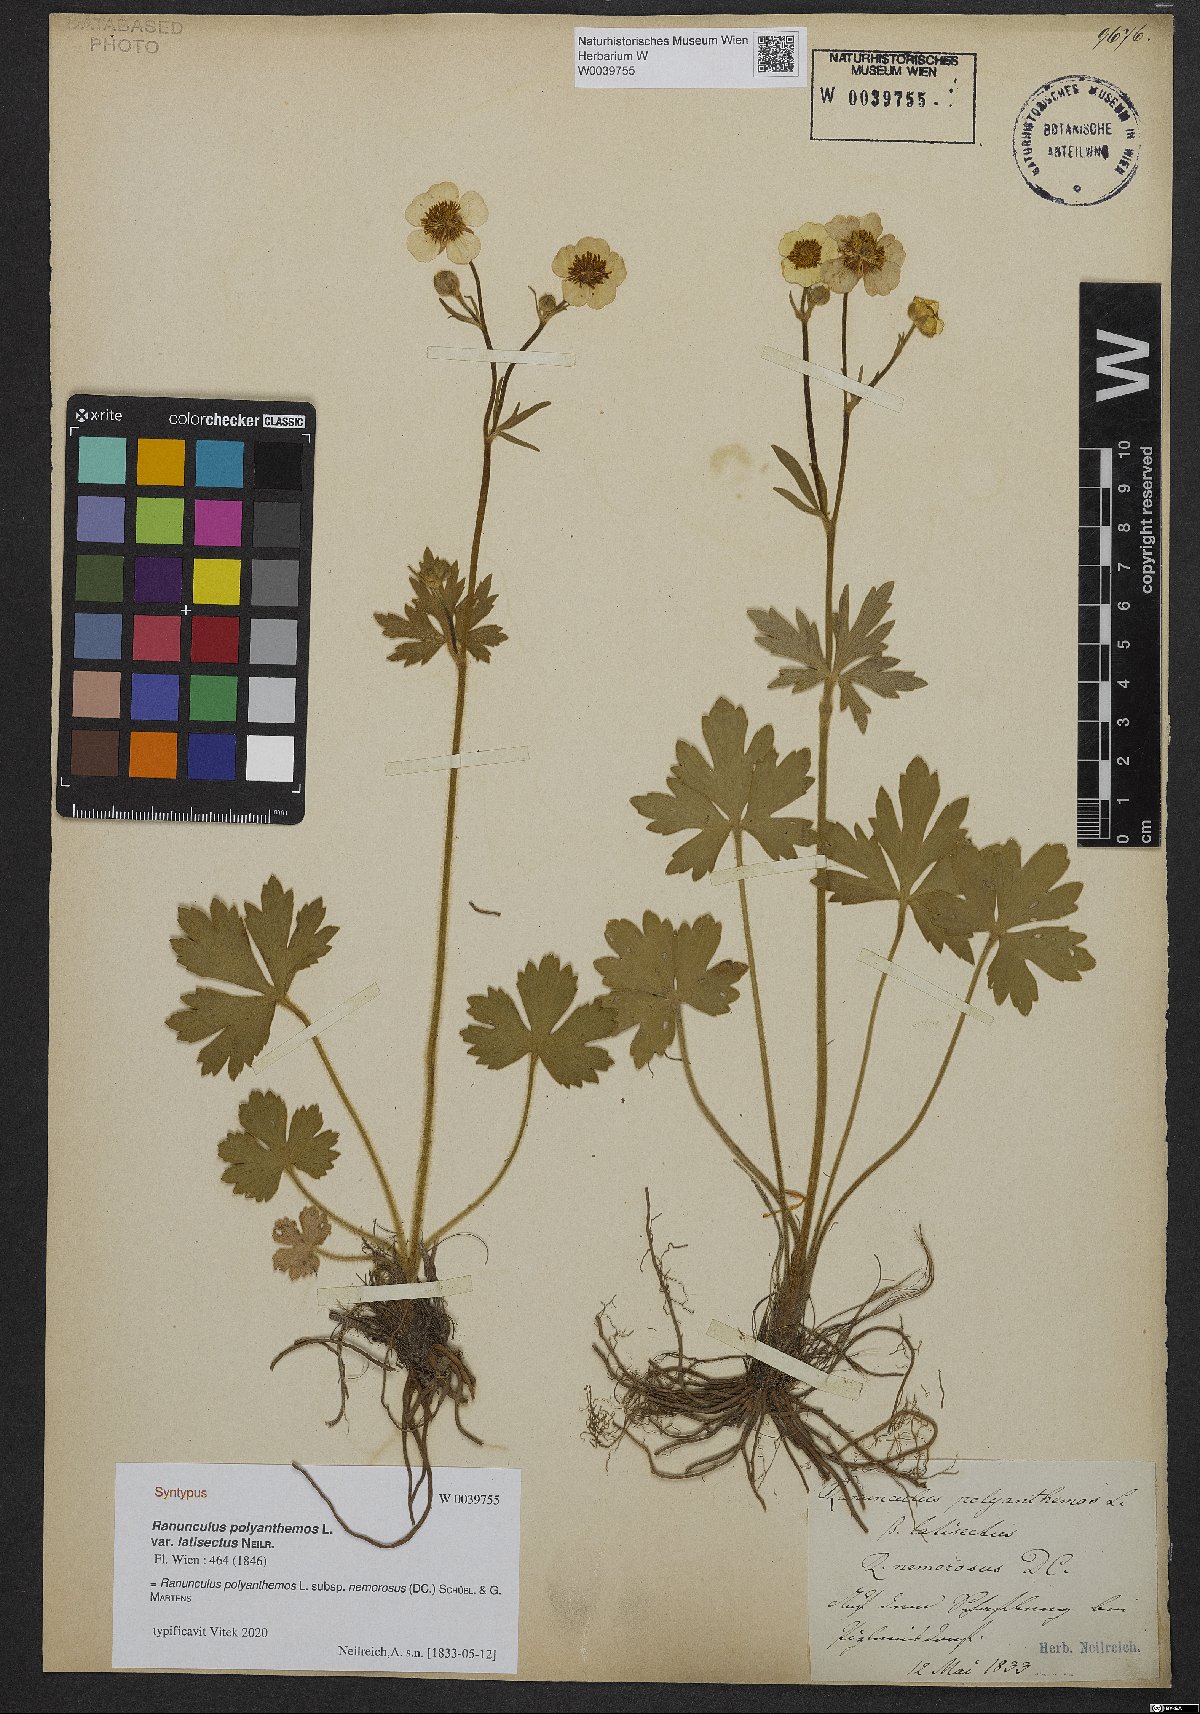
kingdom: Plantae
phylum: Tracheophyta
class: Magnoliopsida
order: Ranunculales
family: Ranunculaceae
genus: Ranunculus
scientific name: Ranunculus polyanthemos
